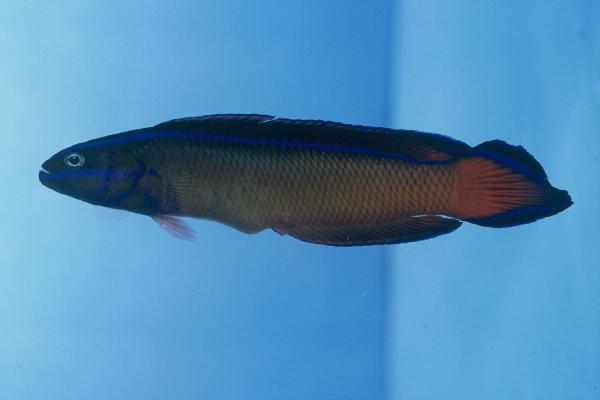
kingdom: Animalia
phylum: Chordata
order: Perciformes
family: Pseudochromidae
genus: Pseudochromis
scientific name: Pseudochromis dutoiti
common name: Dutoiti
